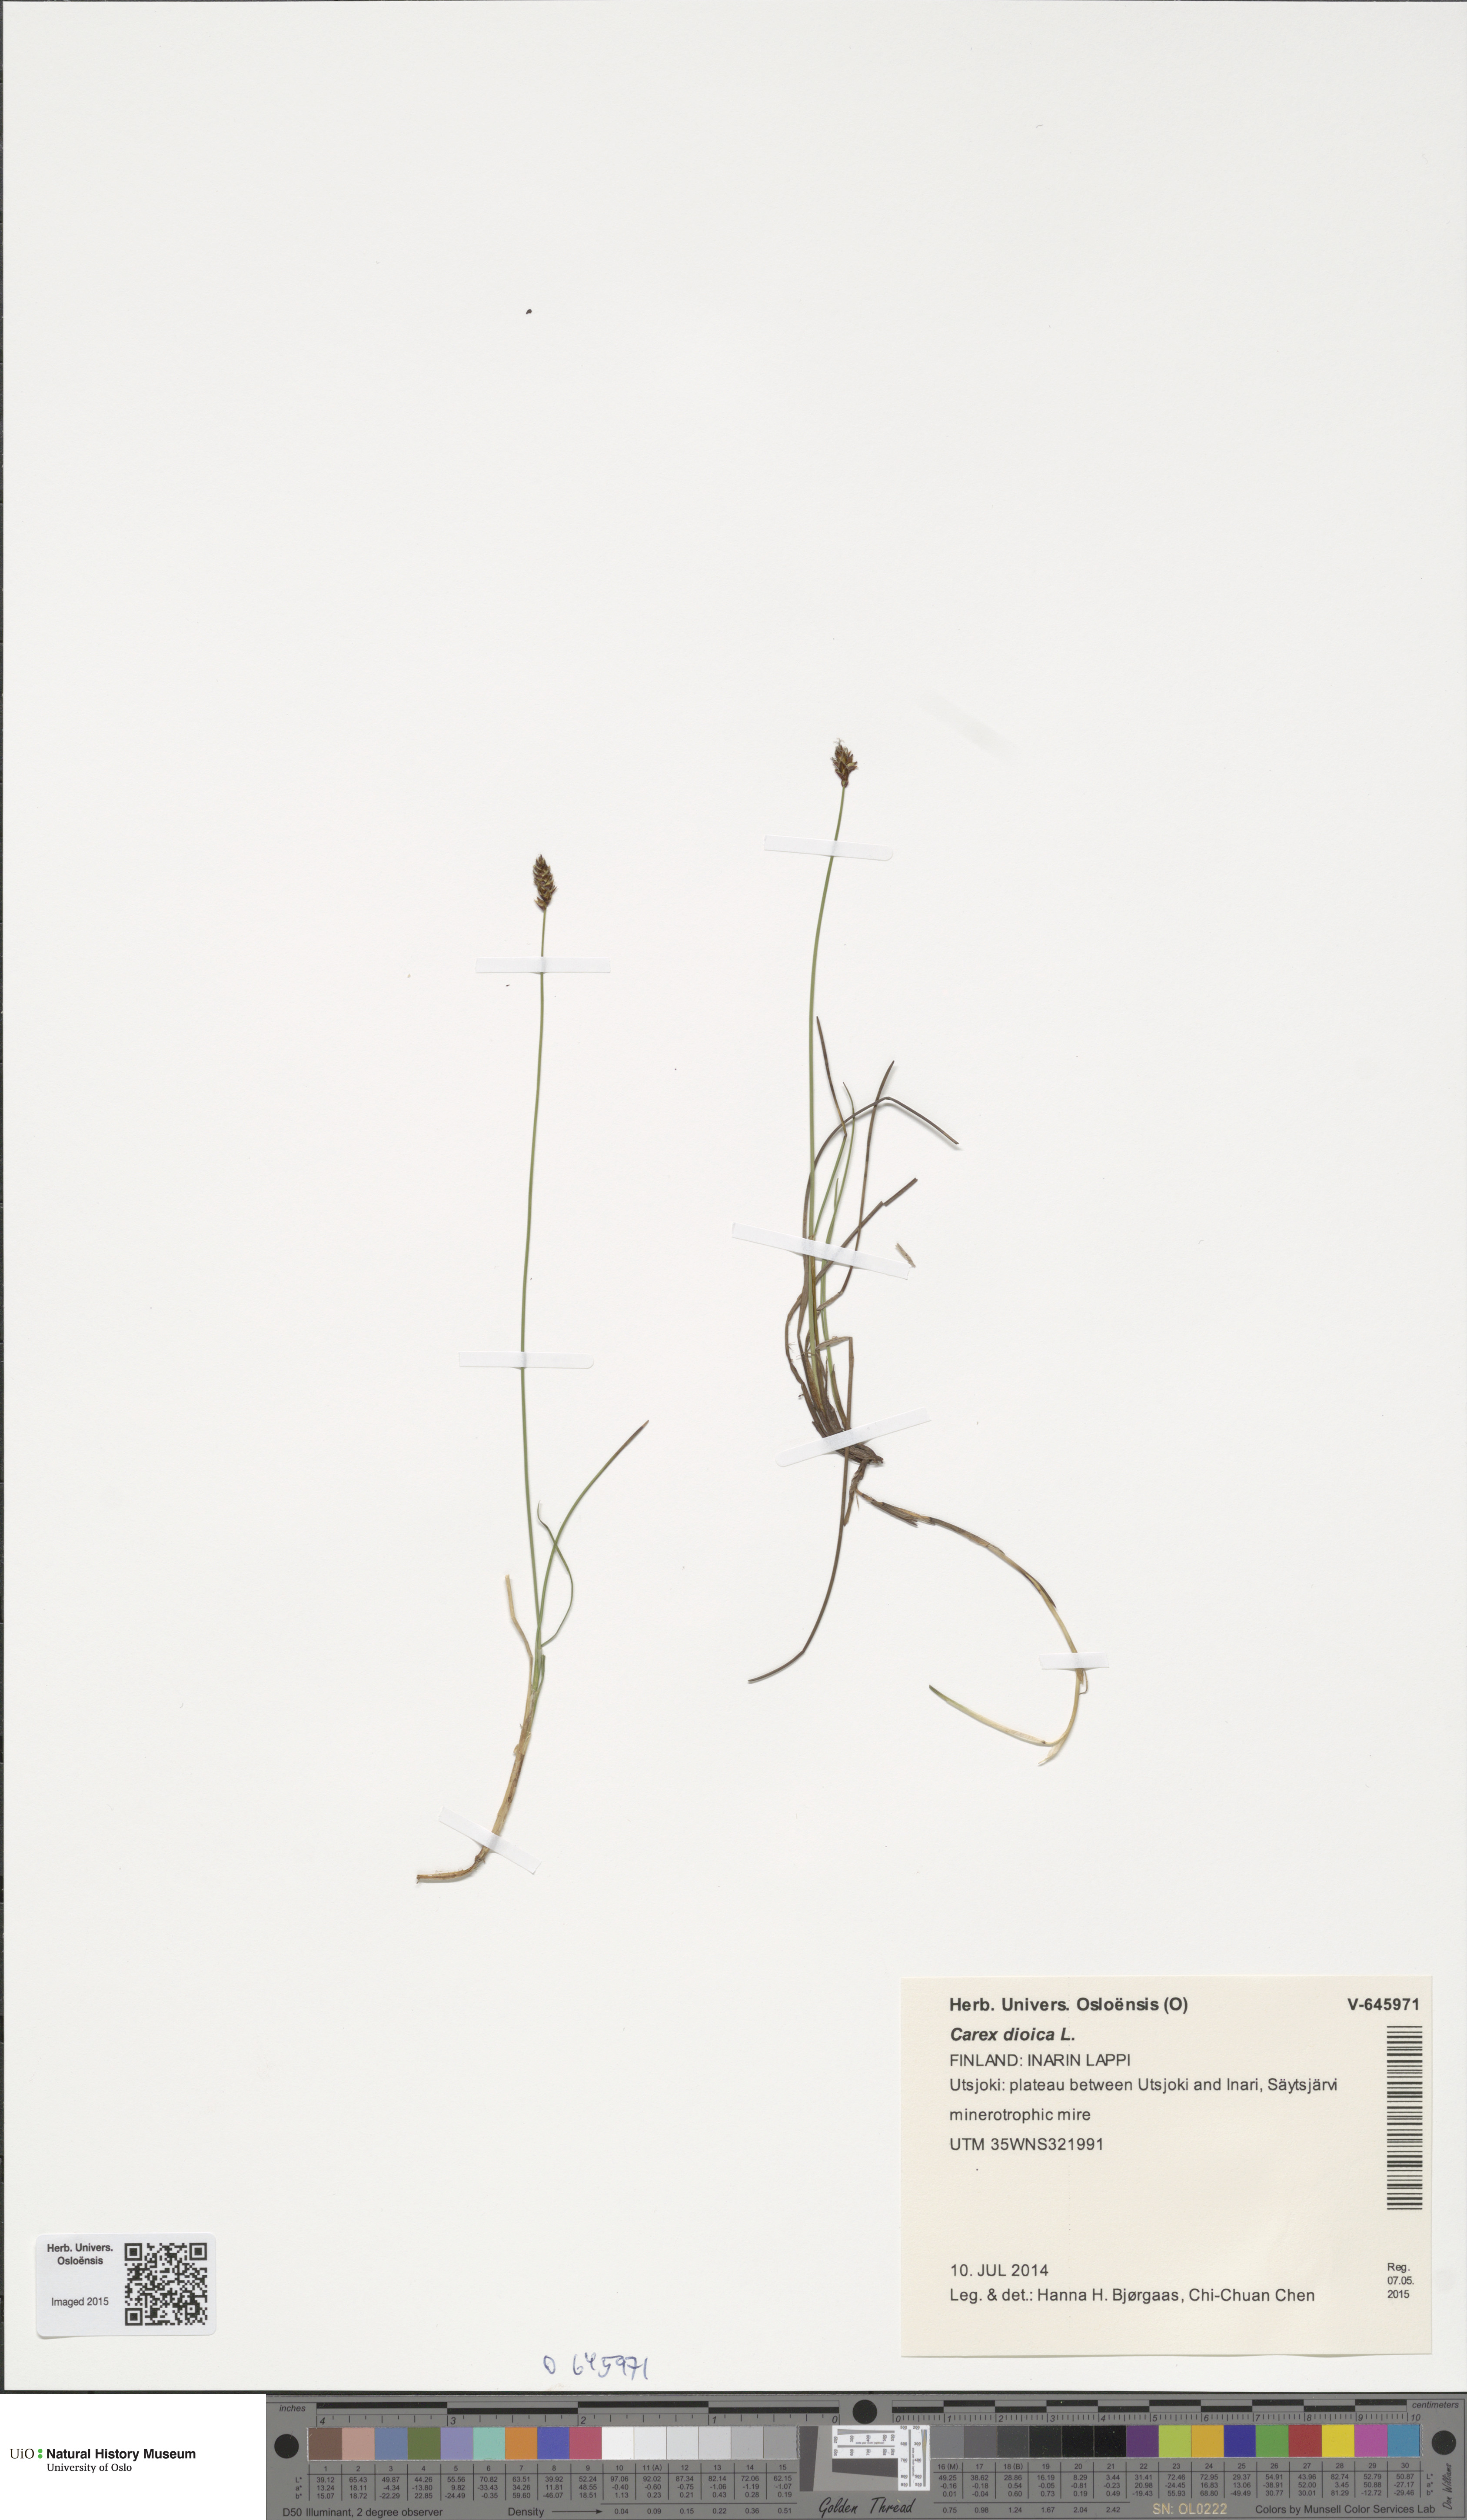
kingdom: Plantae
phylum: Tracheophyta
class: Liliopsida
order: Poales
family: Cyperaceae
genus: Carex
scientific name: Carex dioica
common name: Dioecious sedge
